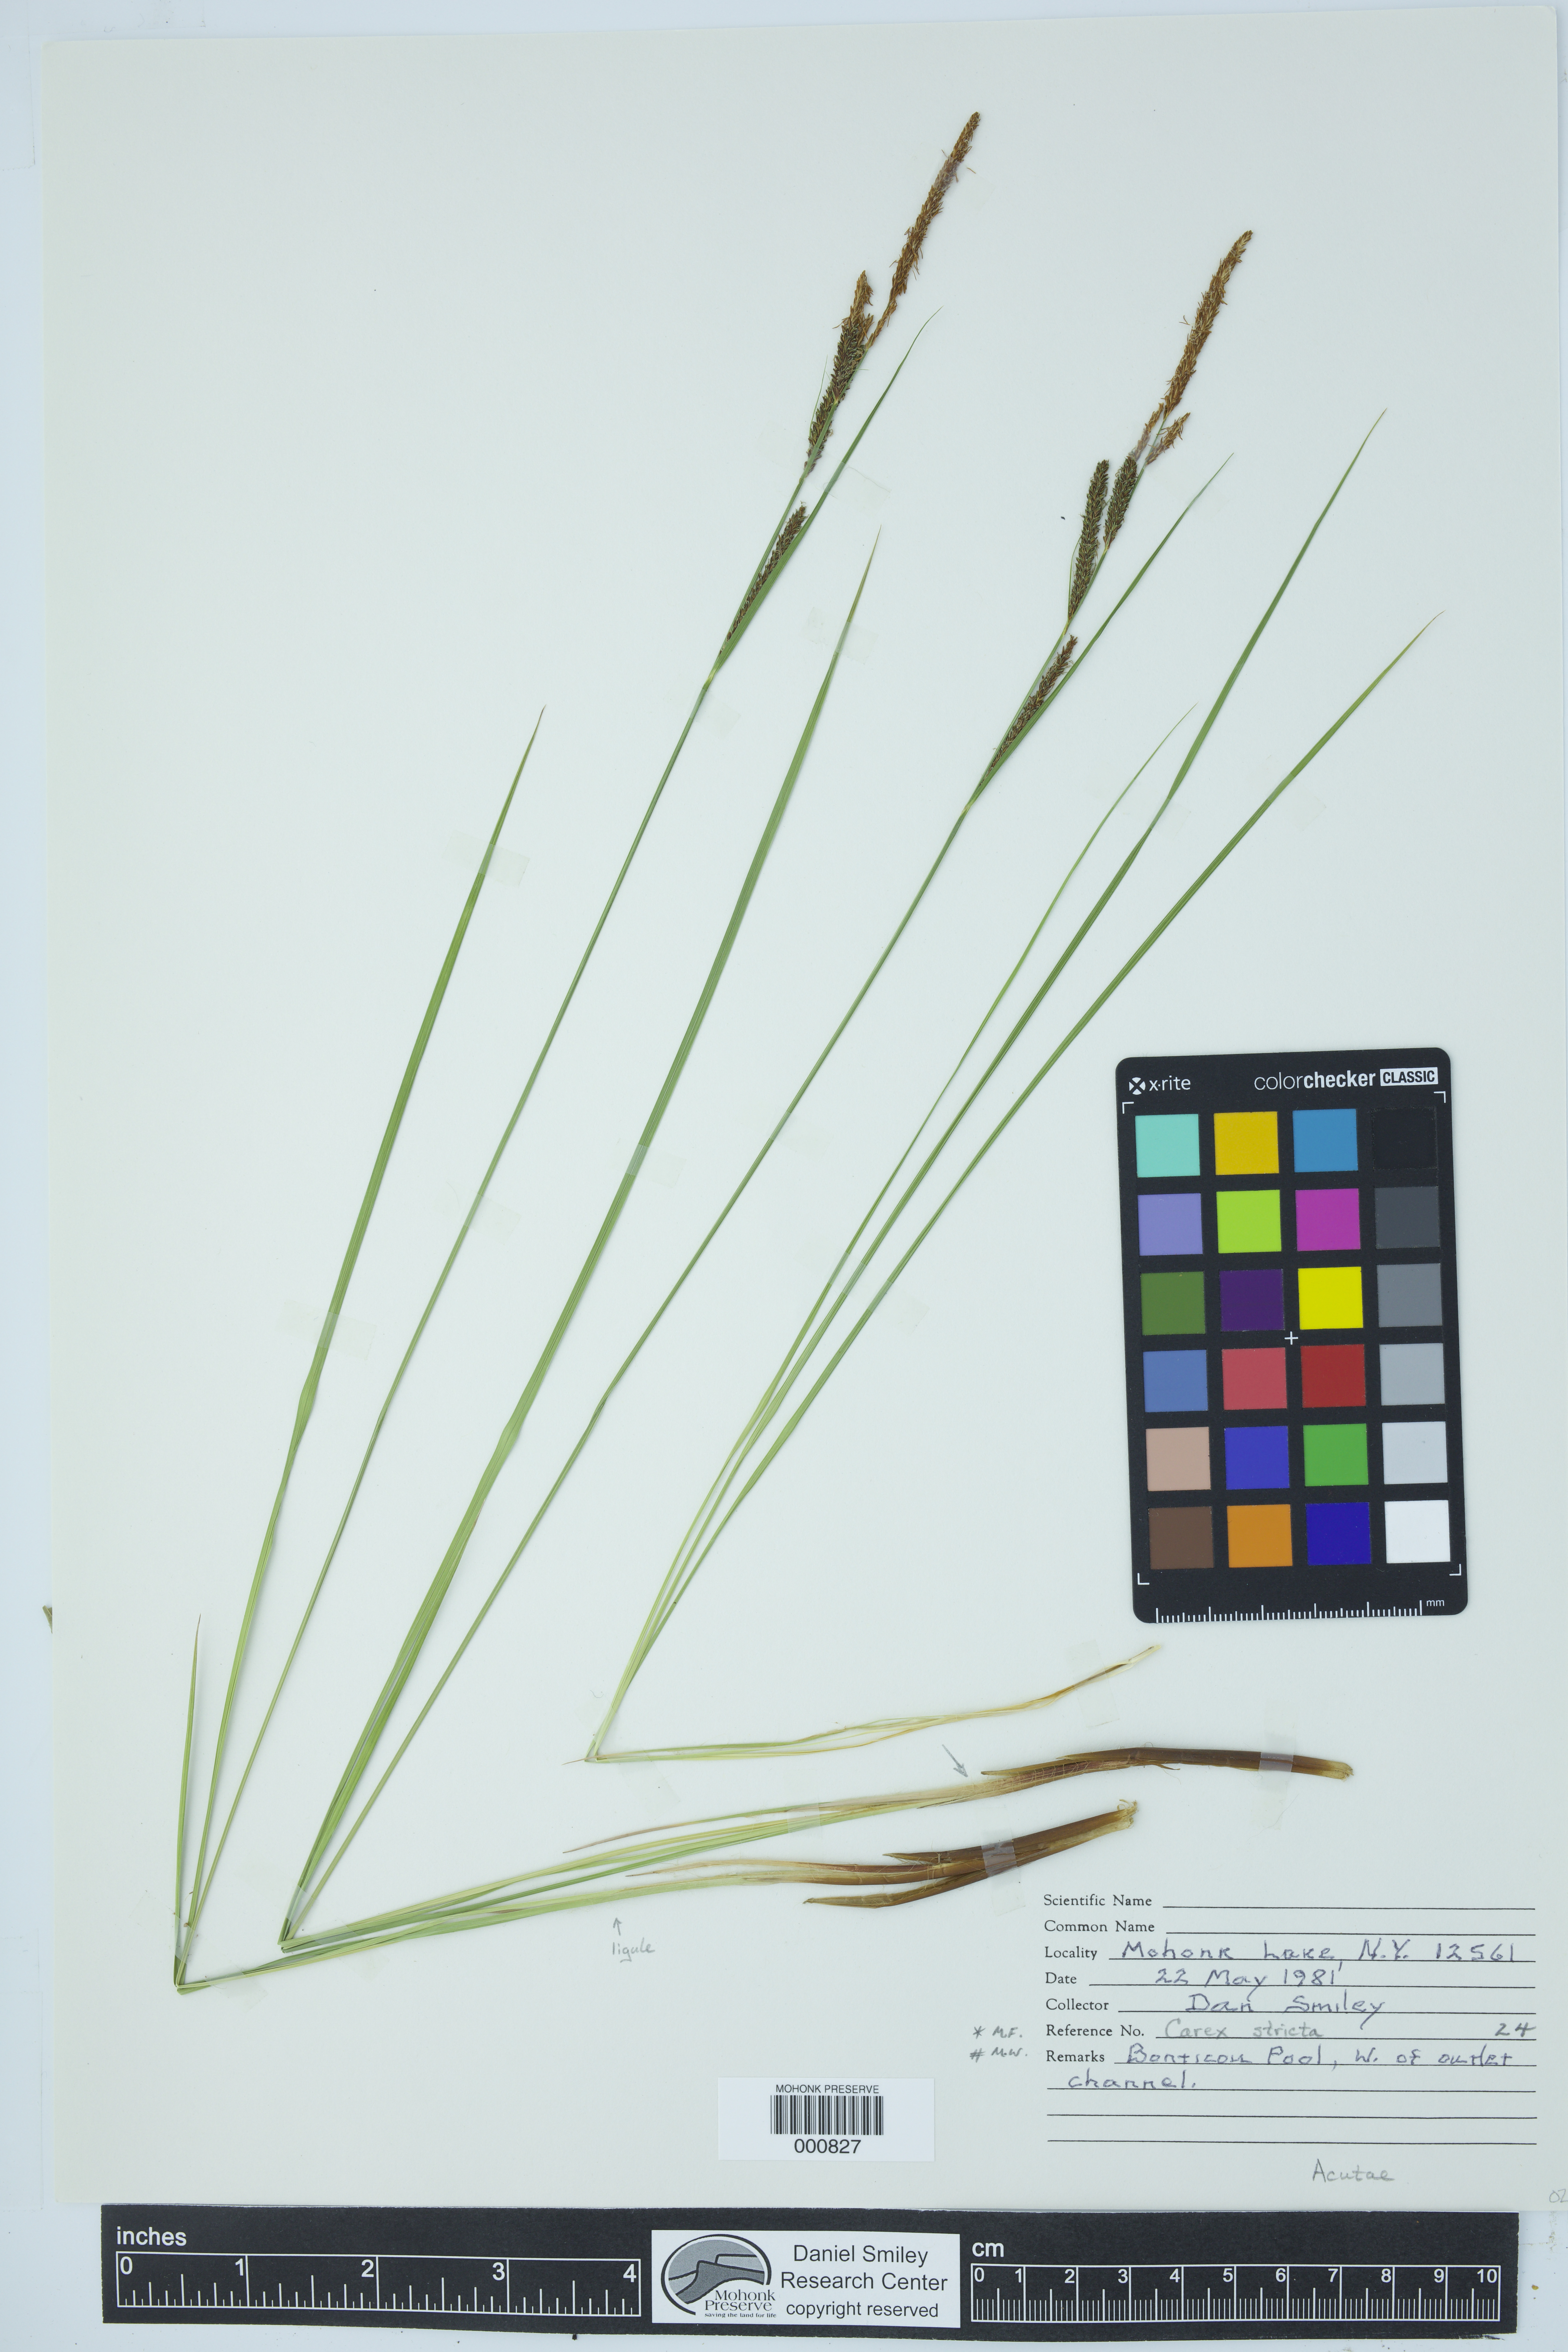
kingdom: Plantae
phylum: Tracheophyta
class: Liliopsida
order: Poales
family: Cyperaceae
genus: Carex
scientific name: Carex stricta
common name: Hummock sedge
